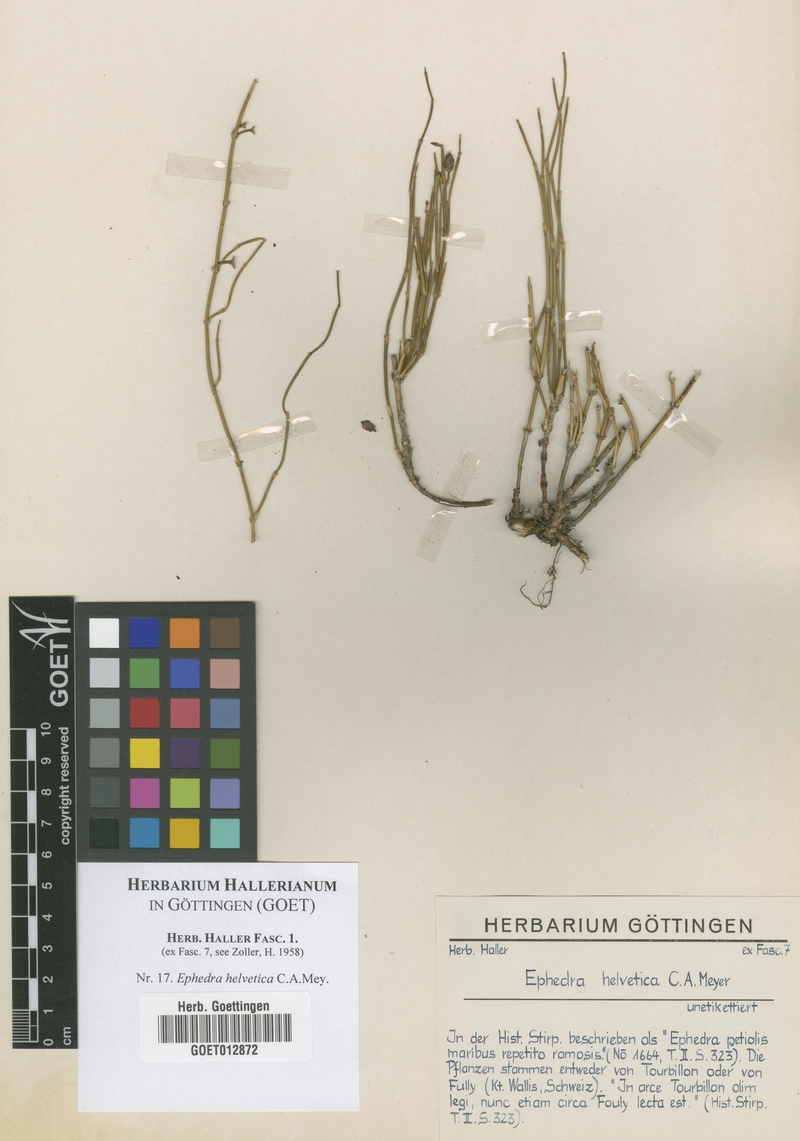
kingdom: Plantae
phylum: Tracheophyta
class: Gnetopsida
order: Ephedrales
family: Ephedraceae
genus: Ephedra
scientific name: Ephedra distachya
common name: Sea grape
